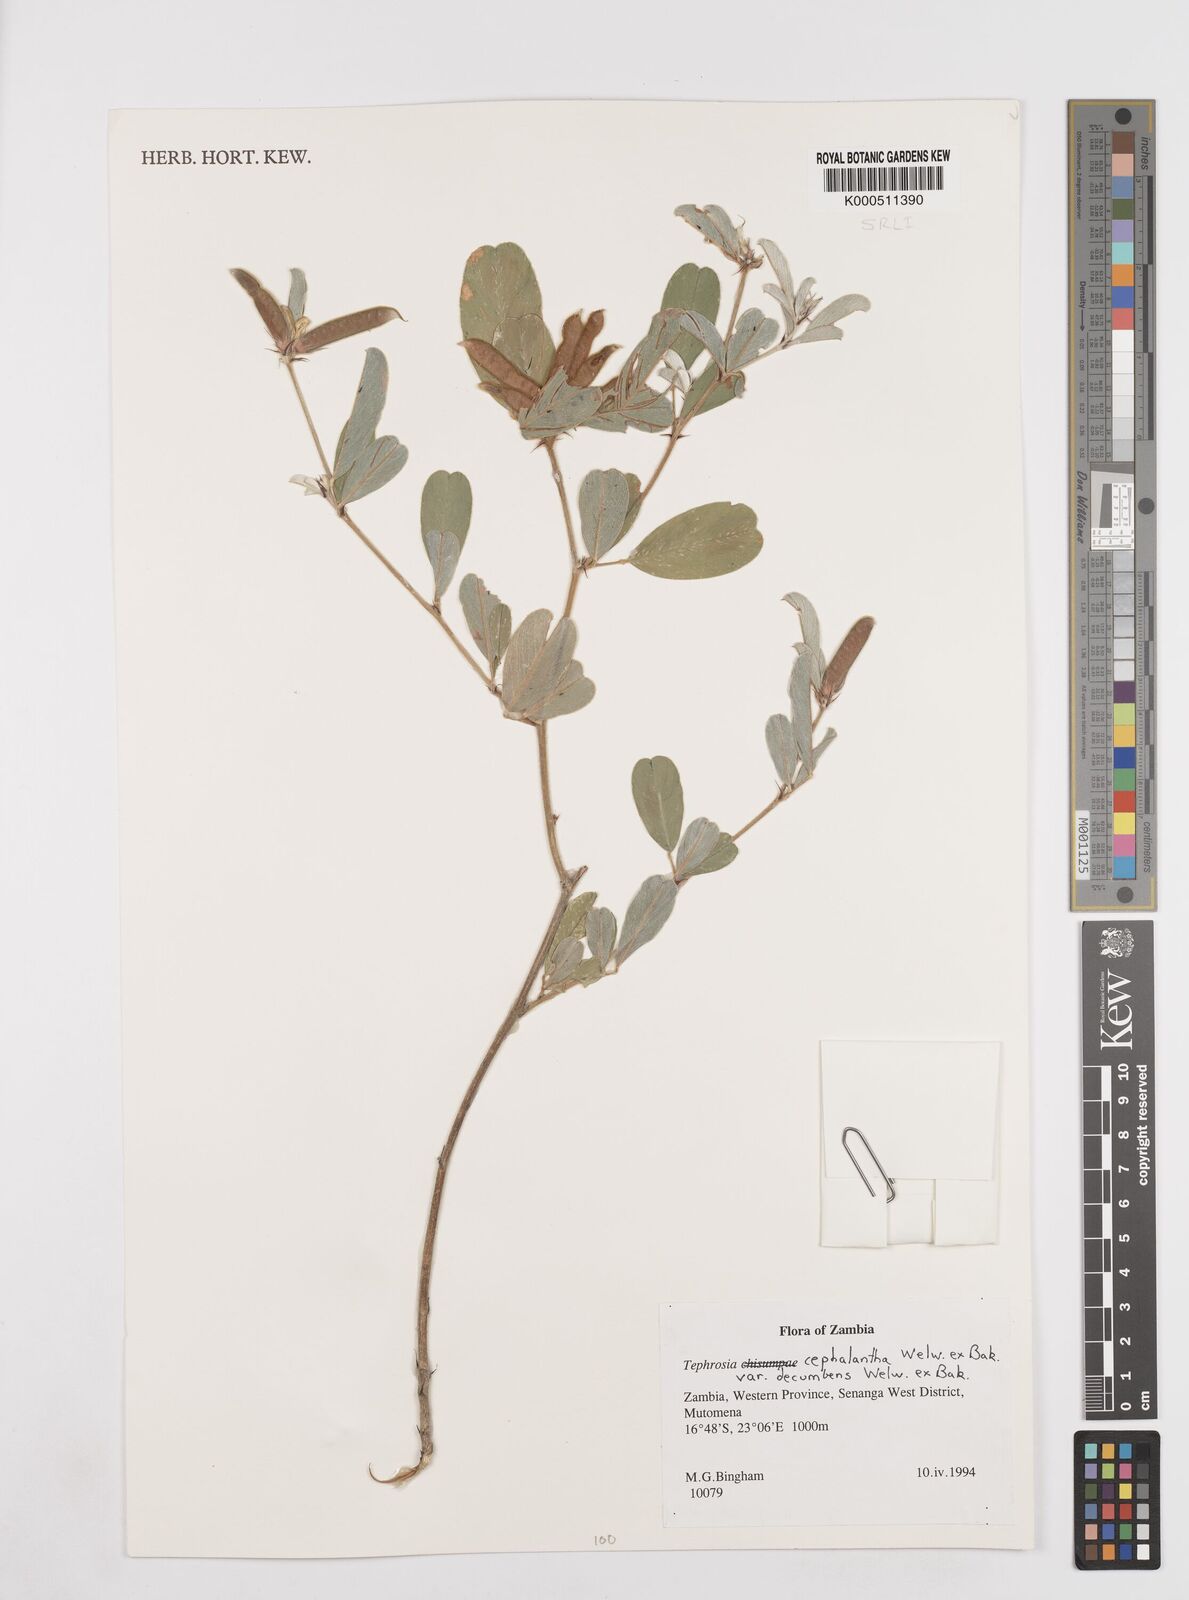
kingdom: Plantae
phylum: Tracheophyta
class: Magnoliopsida
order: Fabales
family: Fabaceae
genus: Tephrosia
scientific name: Tephrosia
